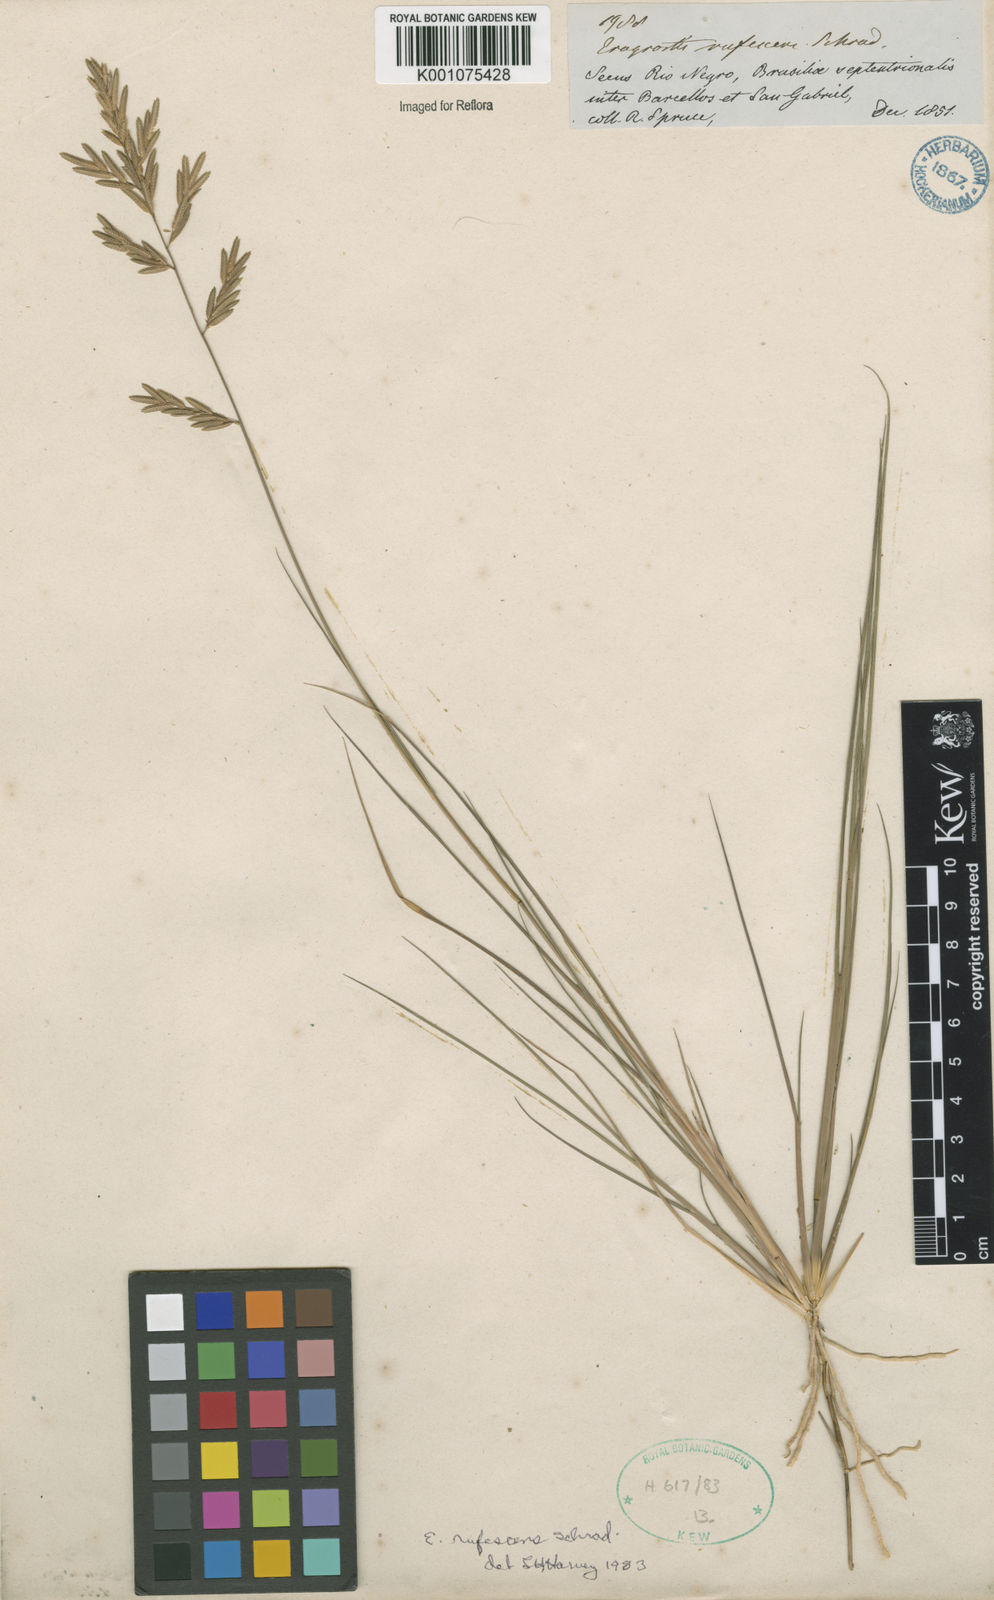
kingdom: Plantae
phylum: Tracheophyta
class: Liliopsida
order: Poales
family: Poaceae
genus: Eragrostis
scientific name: Eragrostis rufescens
